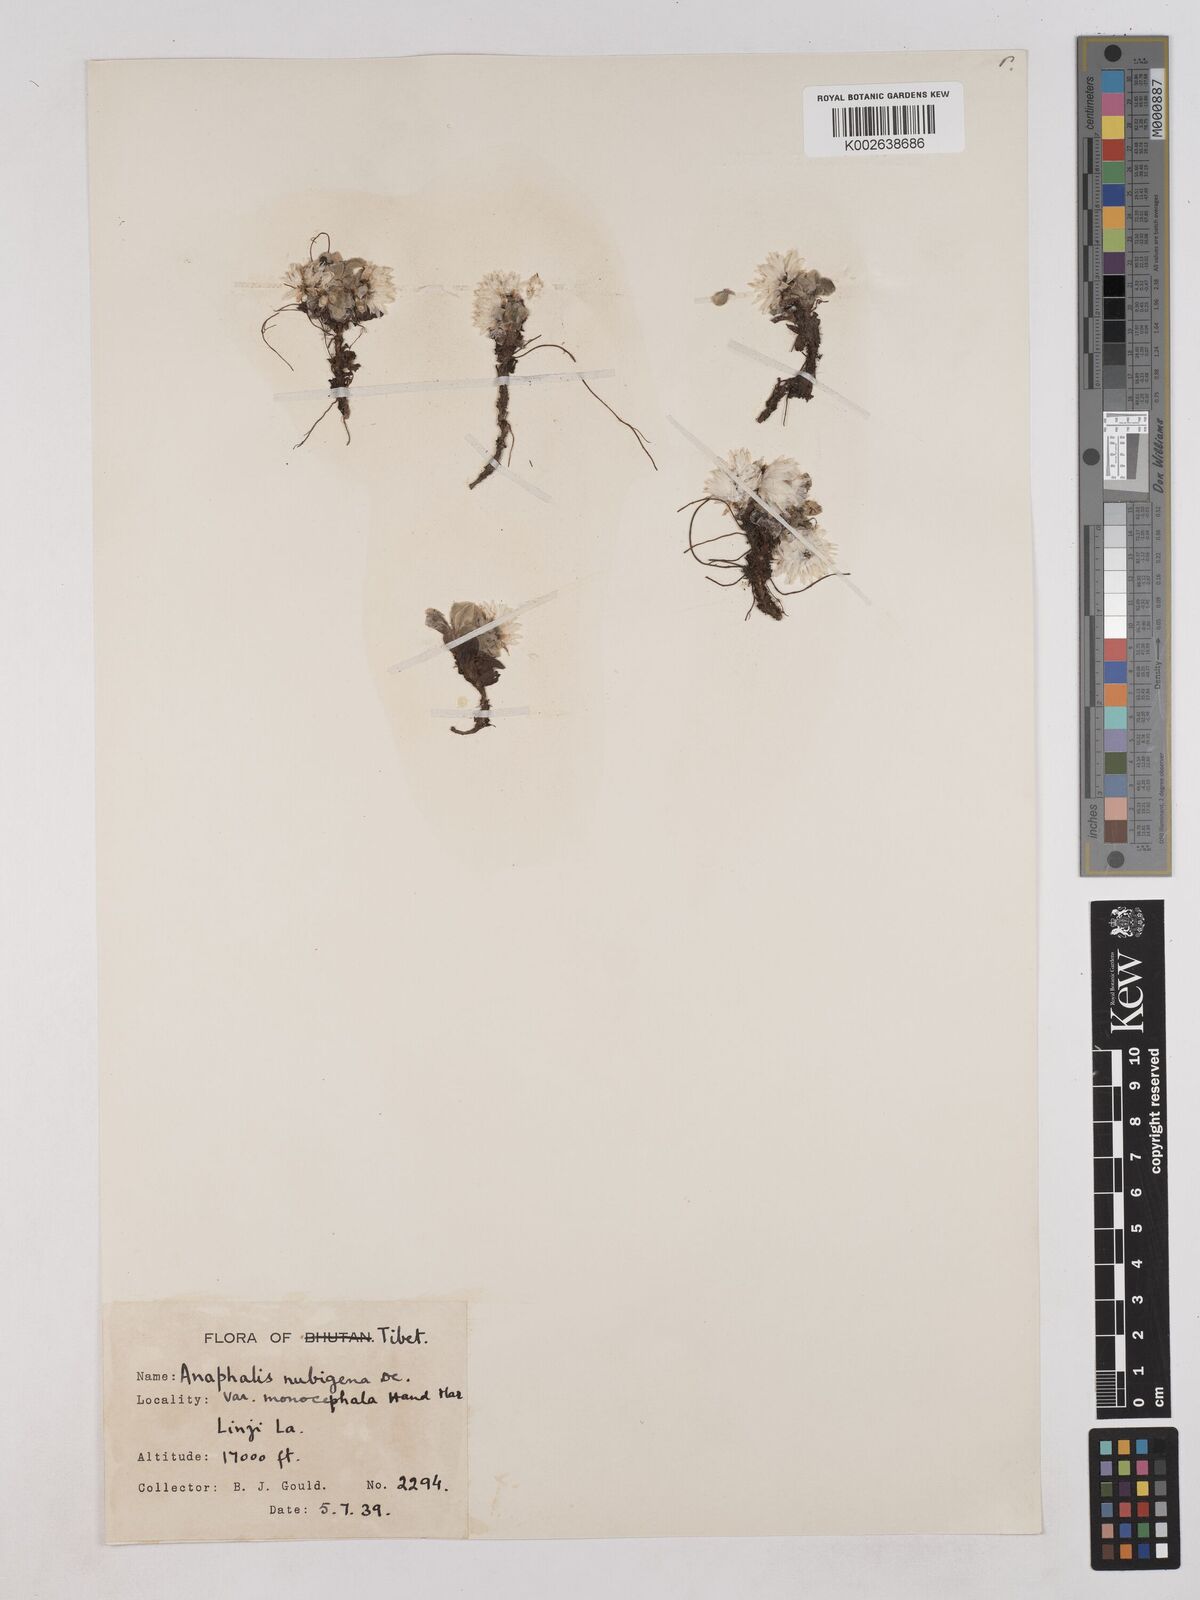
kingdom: Plantae
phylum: Tracheophyta
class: Magnoliopsida
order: Asterales
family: Asteraceae
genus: Anaphalis
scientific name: Anaphalis nepalensis
